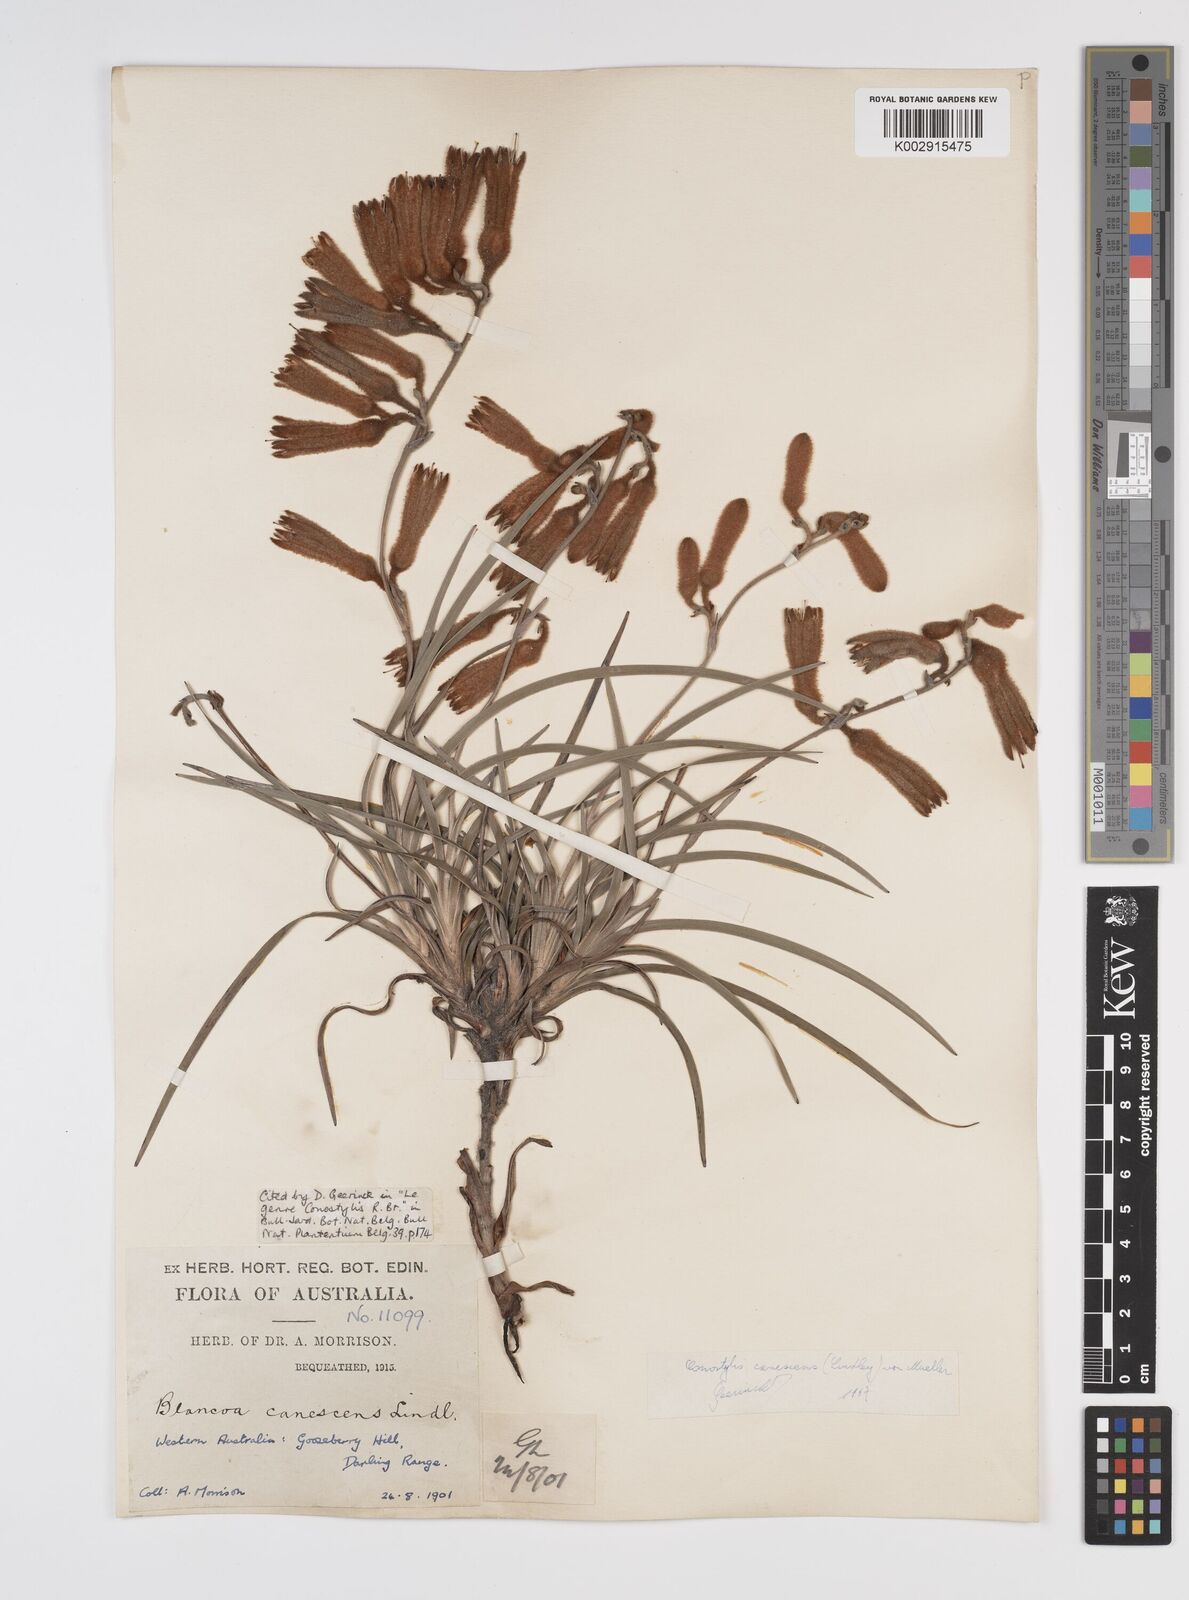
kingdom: Plantae
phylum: Tracheophyta
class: Liliopsida
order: Commelinales
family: Haemodoraceae
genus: Blancoa
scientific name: Blancoa canescens
